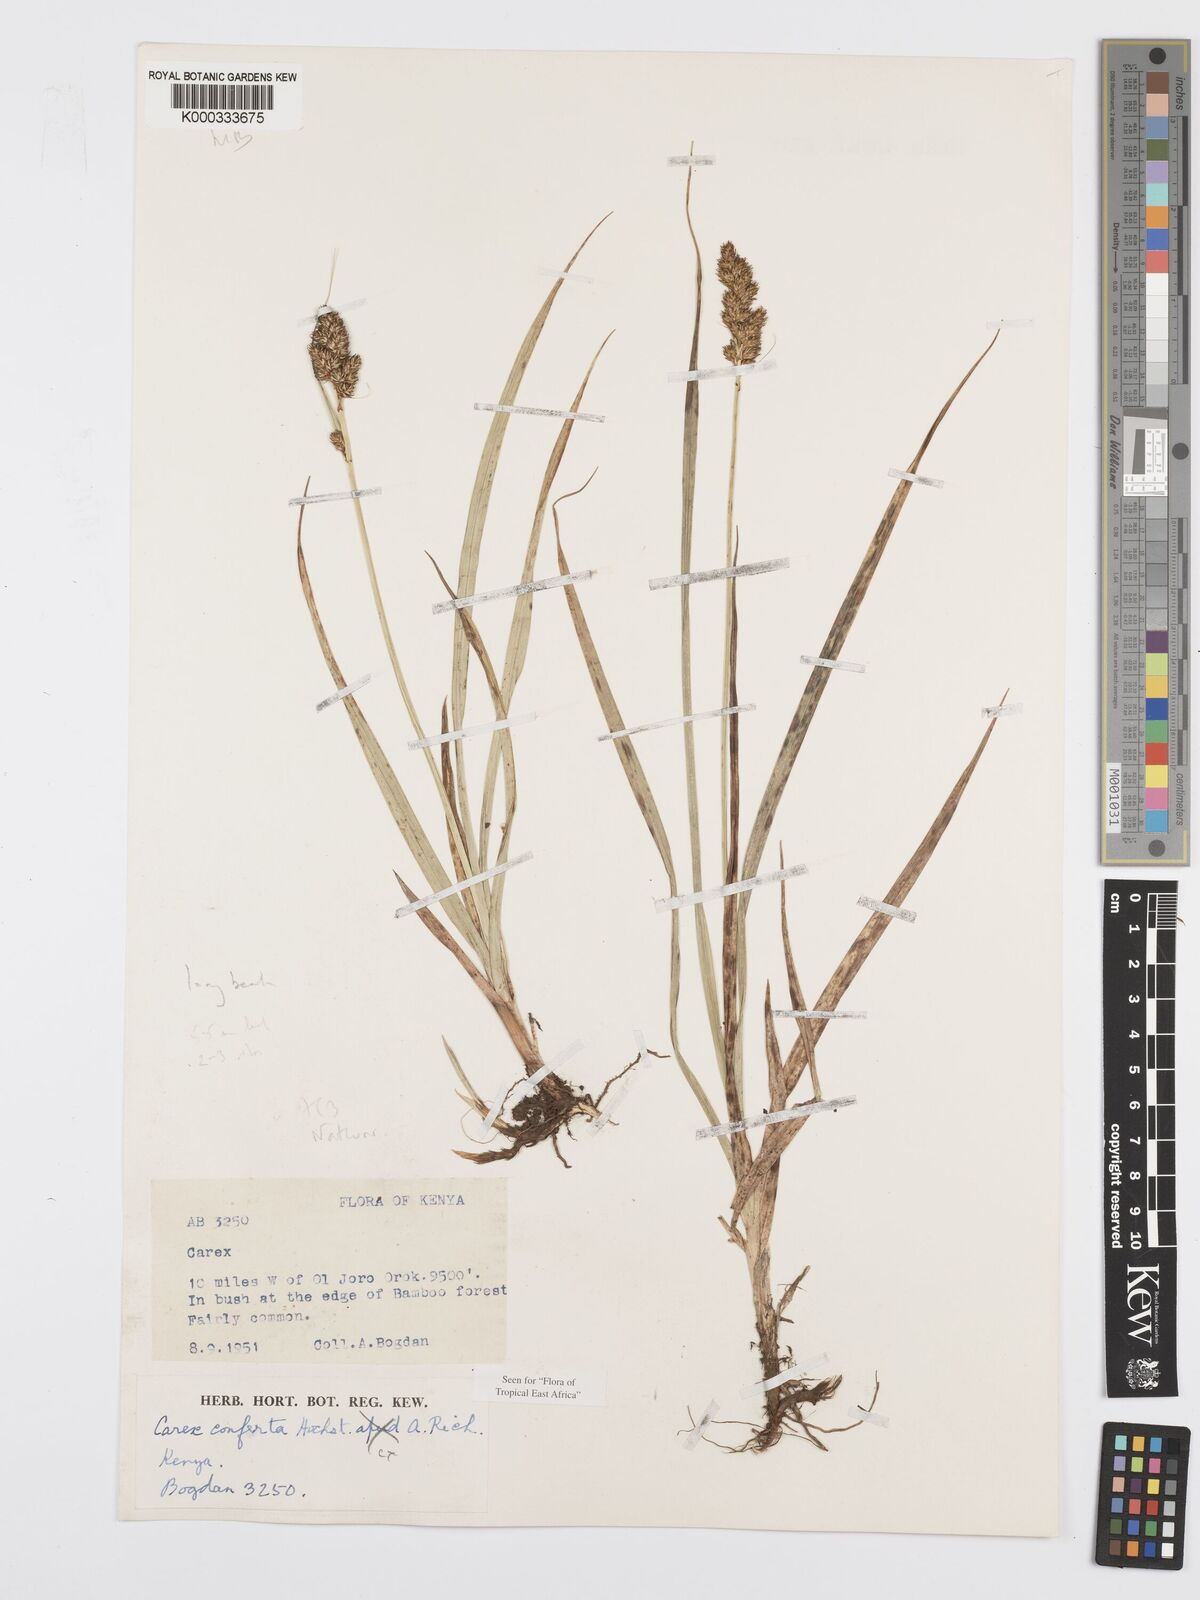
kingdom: Plantae
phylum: Tracheophyta
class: Liliopsida
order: Poales
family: Cyperaceae
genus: Carex
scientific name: Carex conferta
